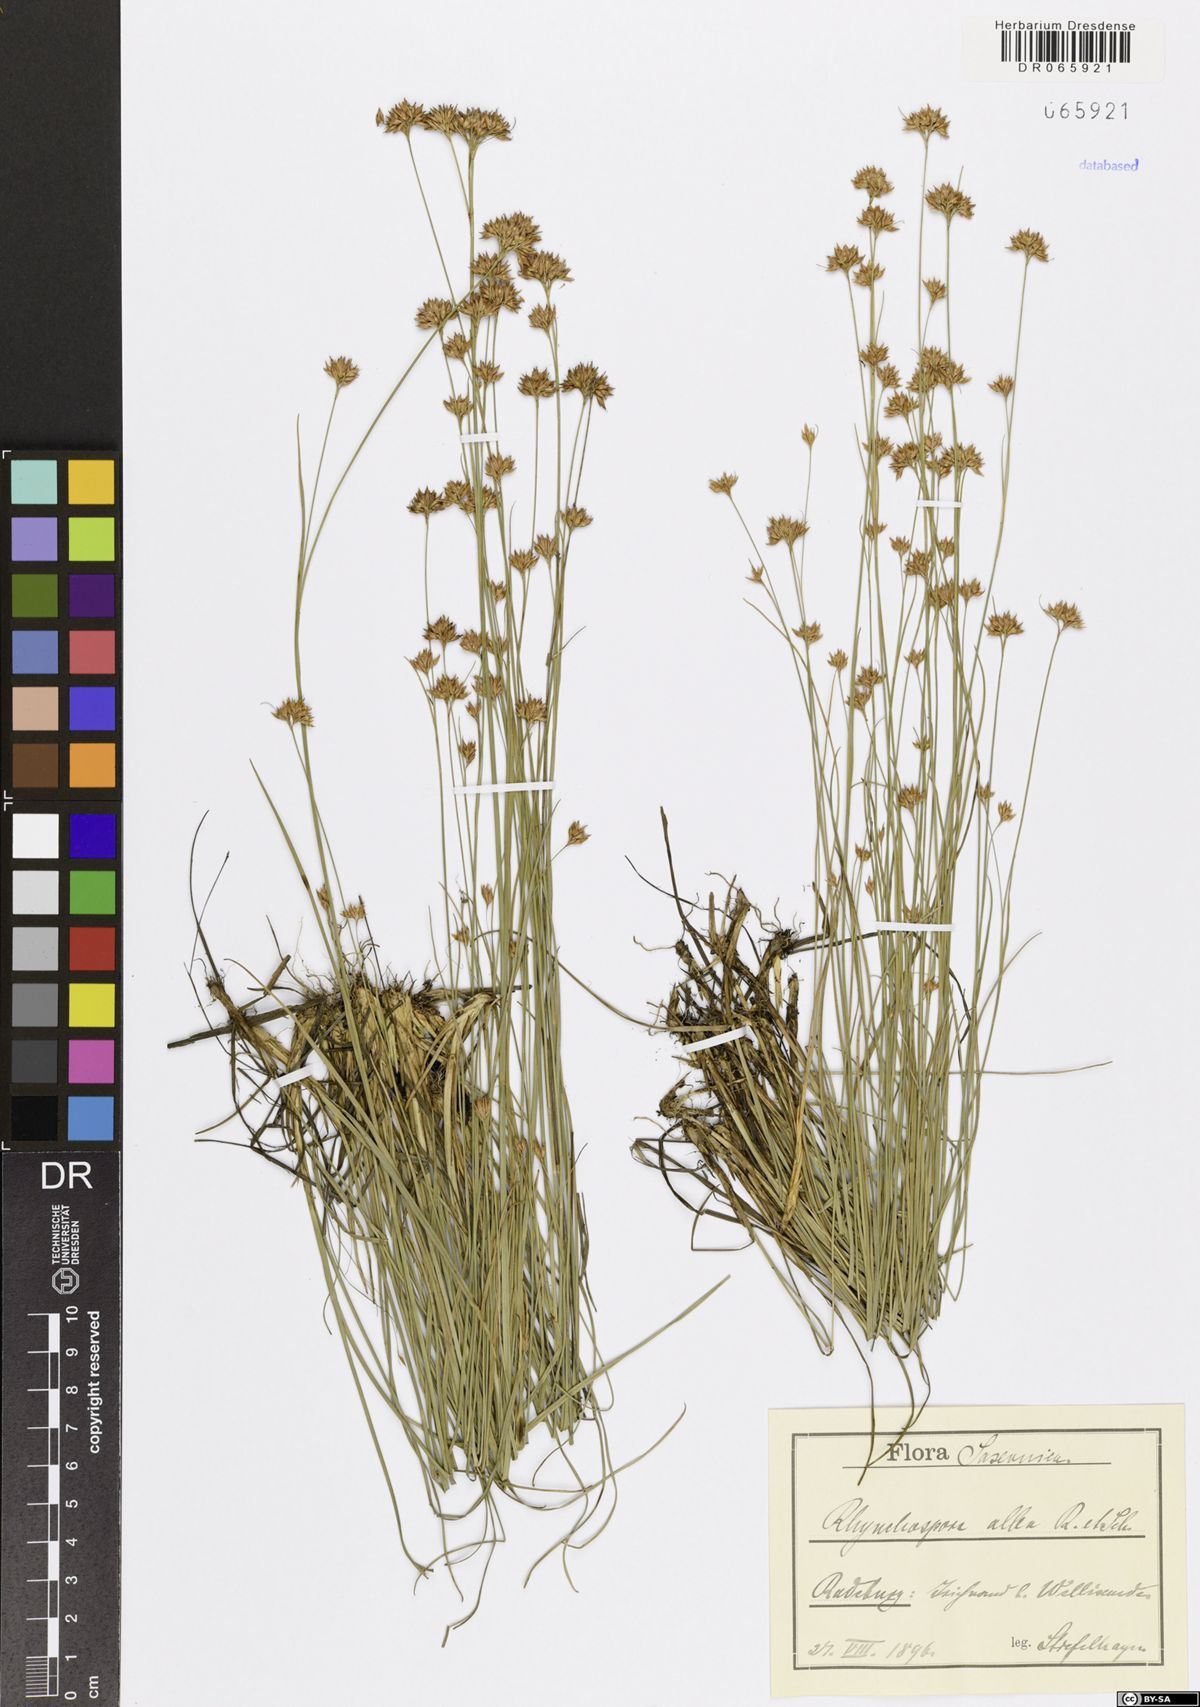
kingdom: Plantae
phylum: Tracheophyta
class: Liliopsida
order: Poales
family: Cyperaceae
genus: Rhynchospora
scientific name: Rhynchospora alba
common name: White beak-sedge
